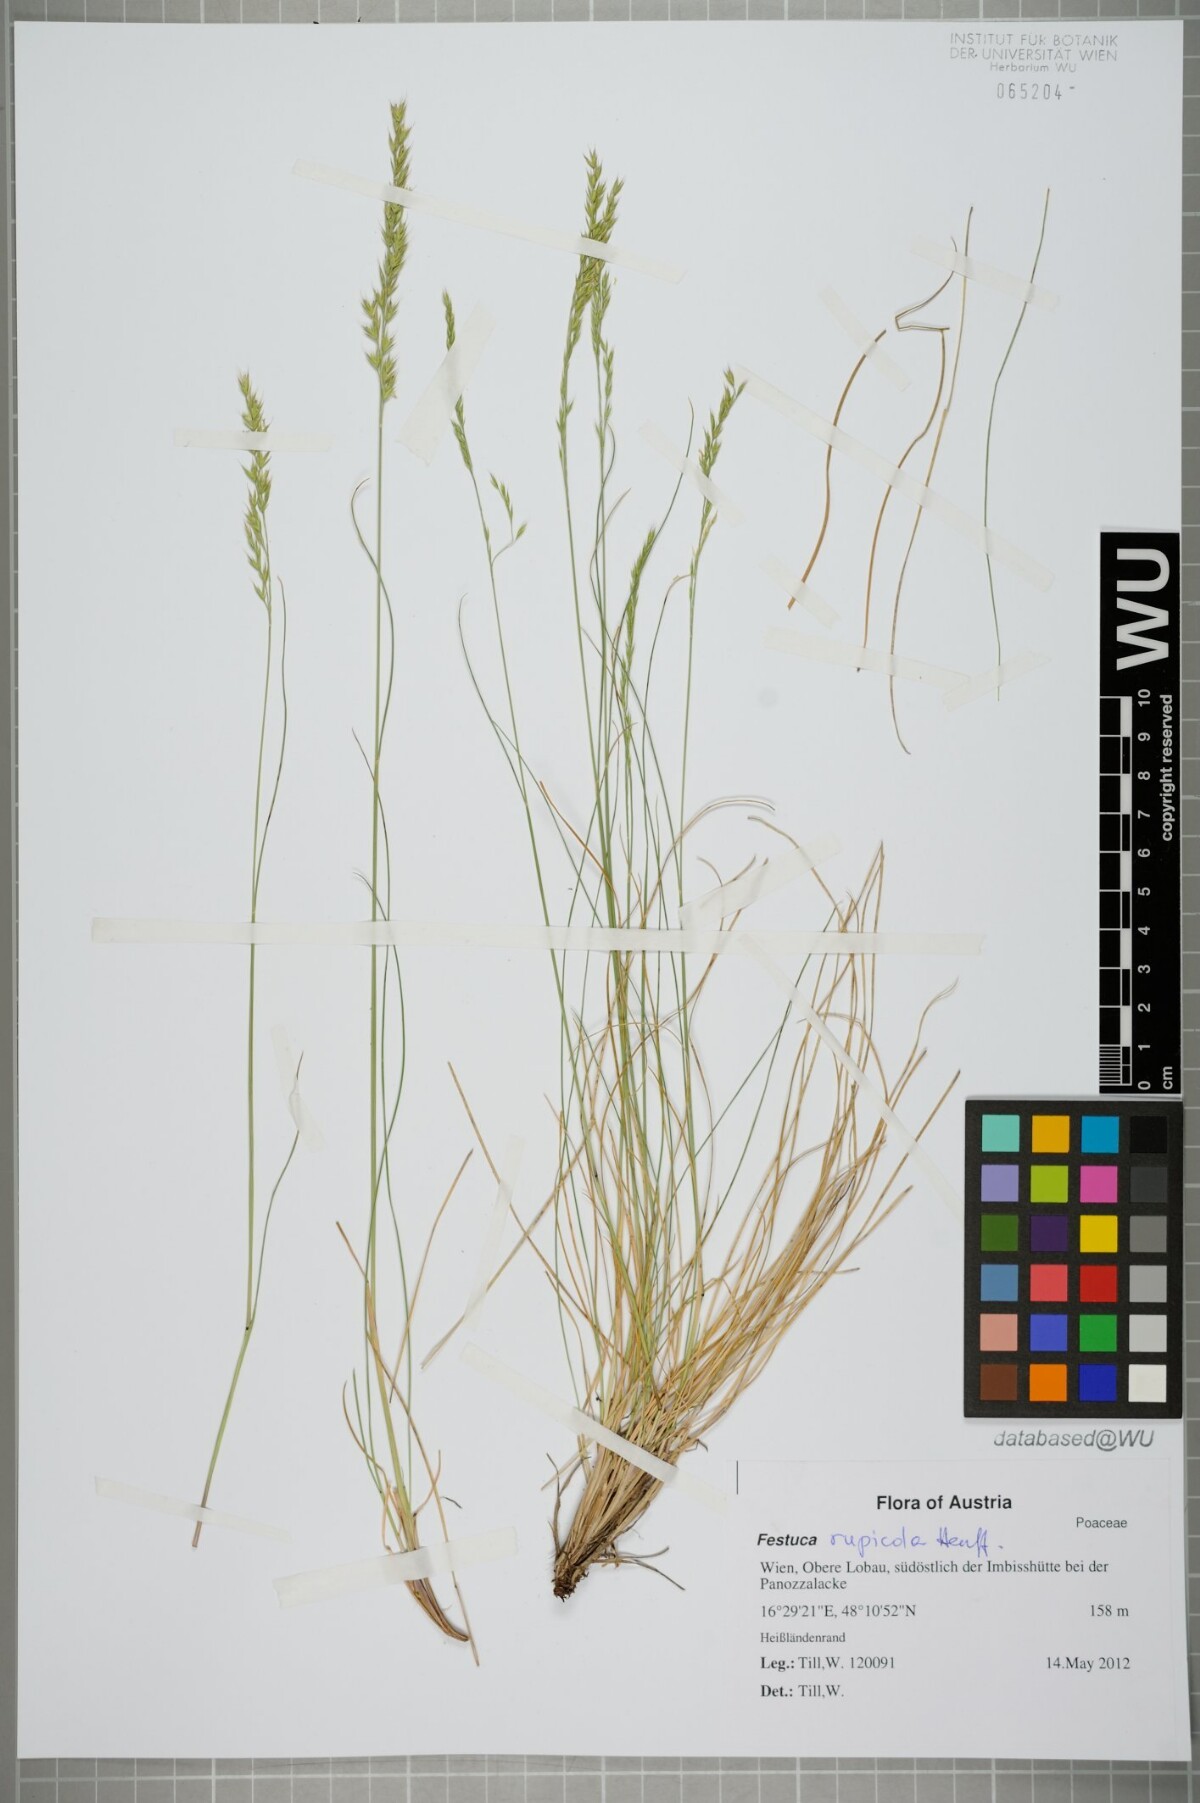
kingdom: Plantae
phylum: Tracheophyta
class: Liliopsida
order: Poales
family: Poaceae
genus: Festuca
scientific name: Festuca rupicola
